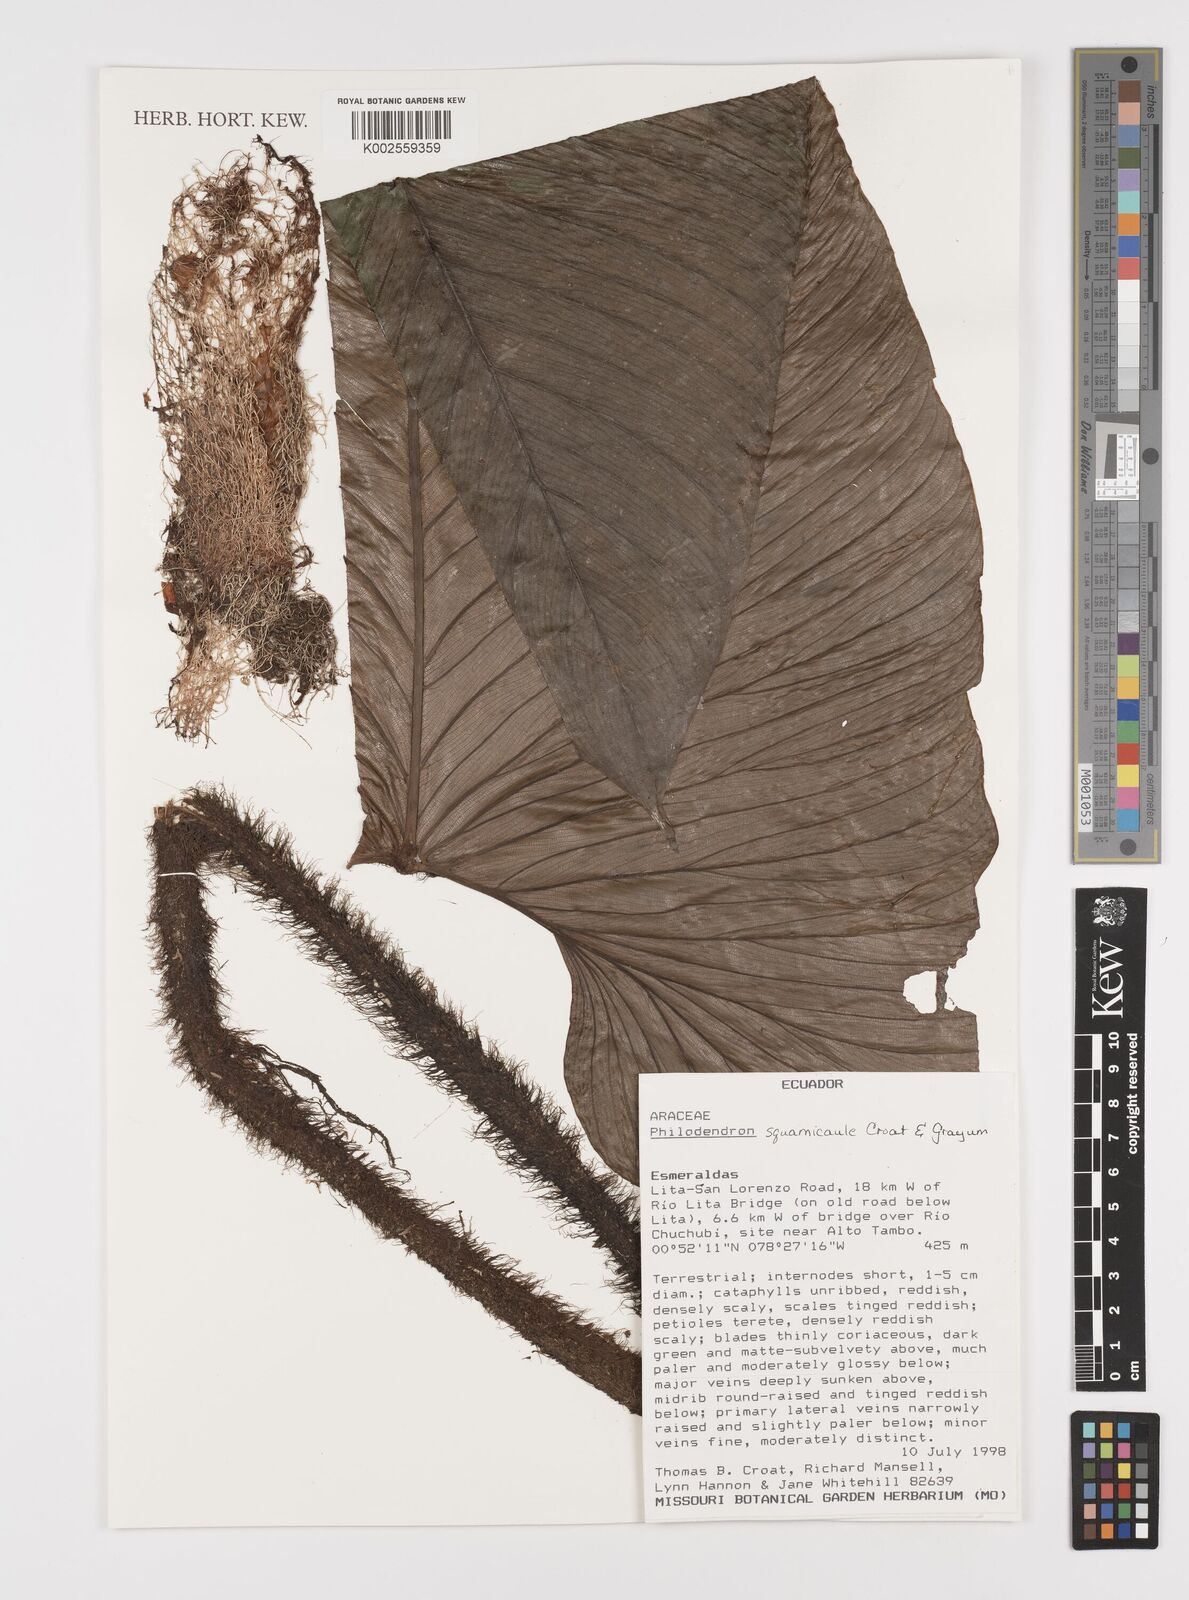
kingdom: Plantae
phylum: Tracheophyta
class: Liliopsida
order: Alismatales
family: Araceae
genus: Philodendron
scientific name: Philodendron squamicaule
